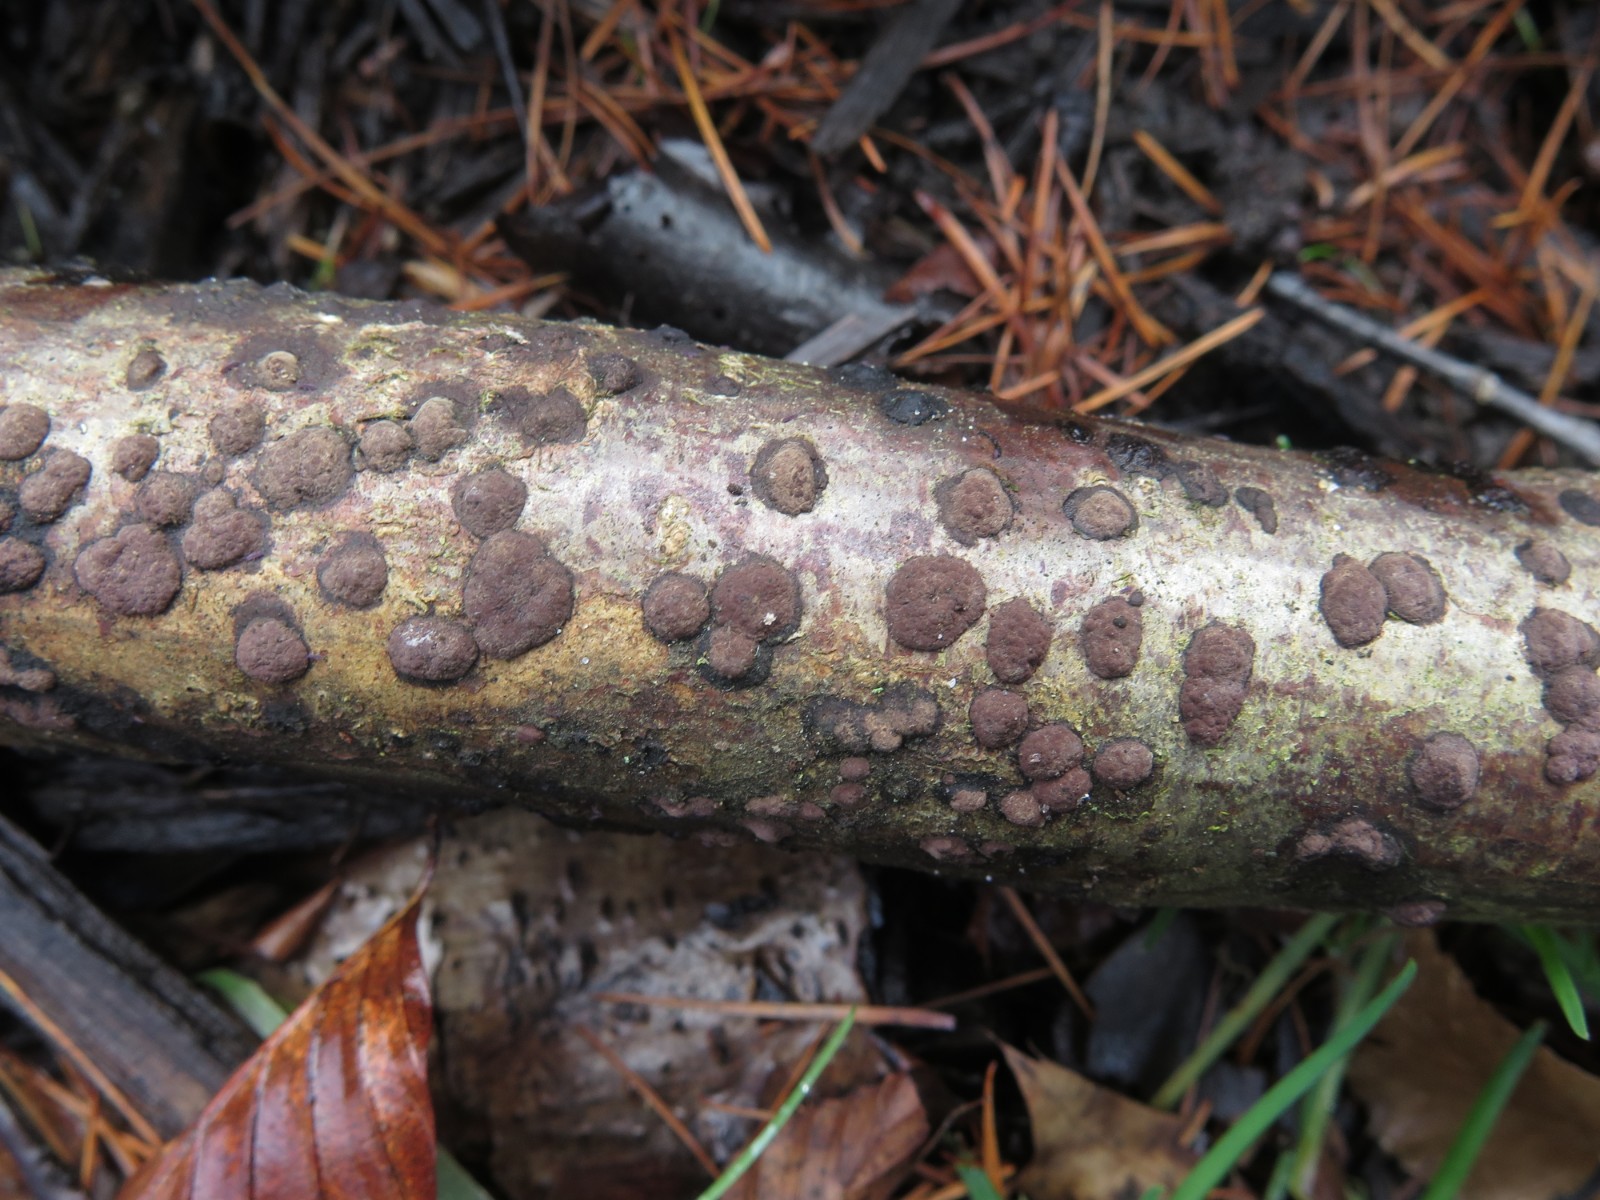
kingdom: Fungi
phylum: Ascomycota
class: Sordariomycetes
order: Xylariales
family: Hypoxylaceae
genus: Hypoxylon
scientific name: Hypoxylon fuscum
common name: kegleformet kulbær
